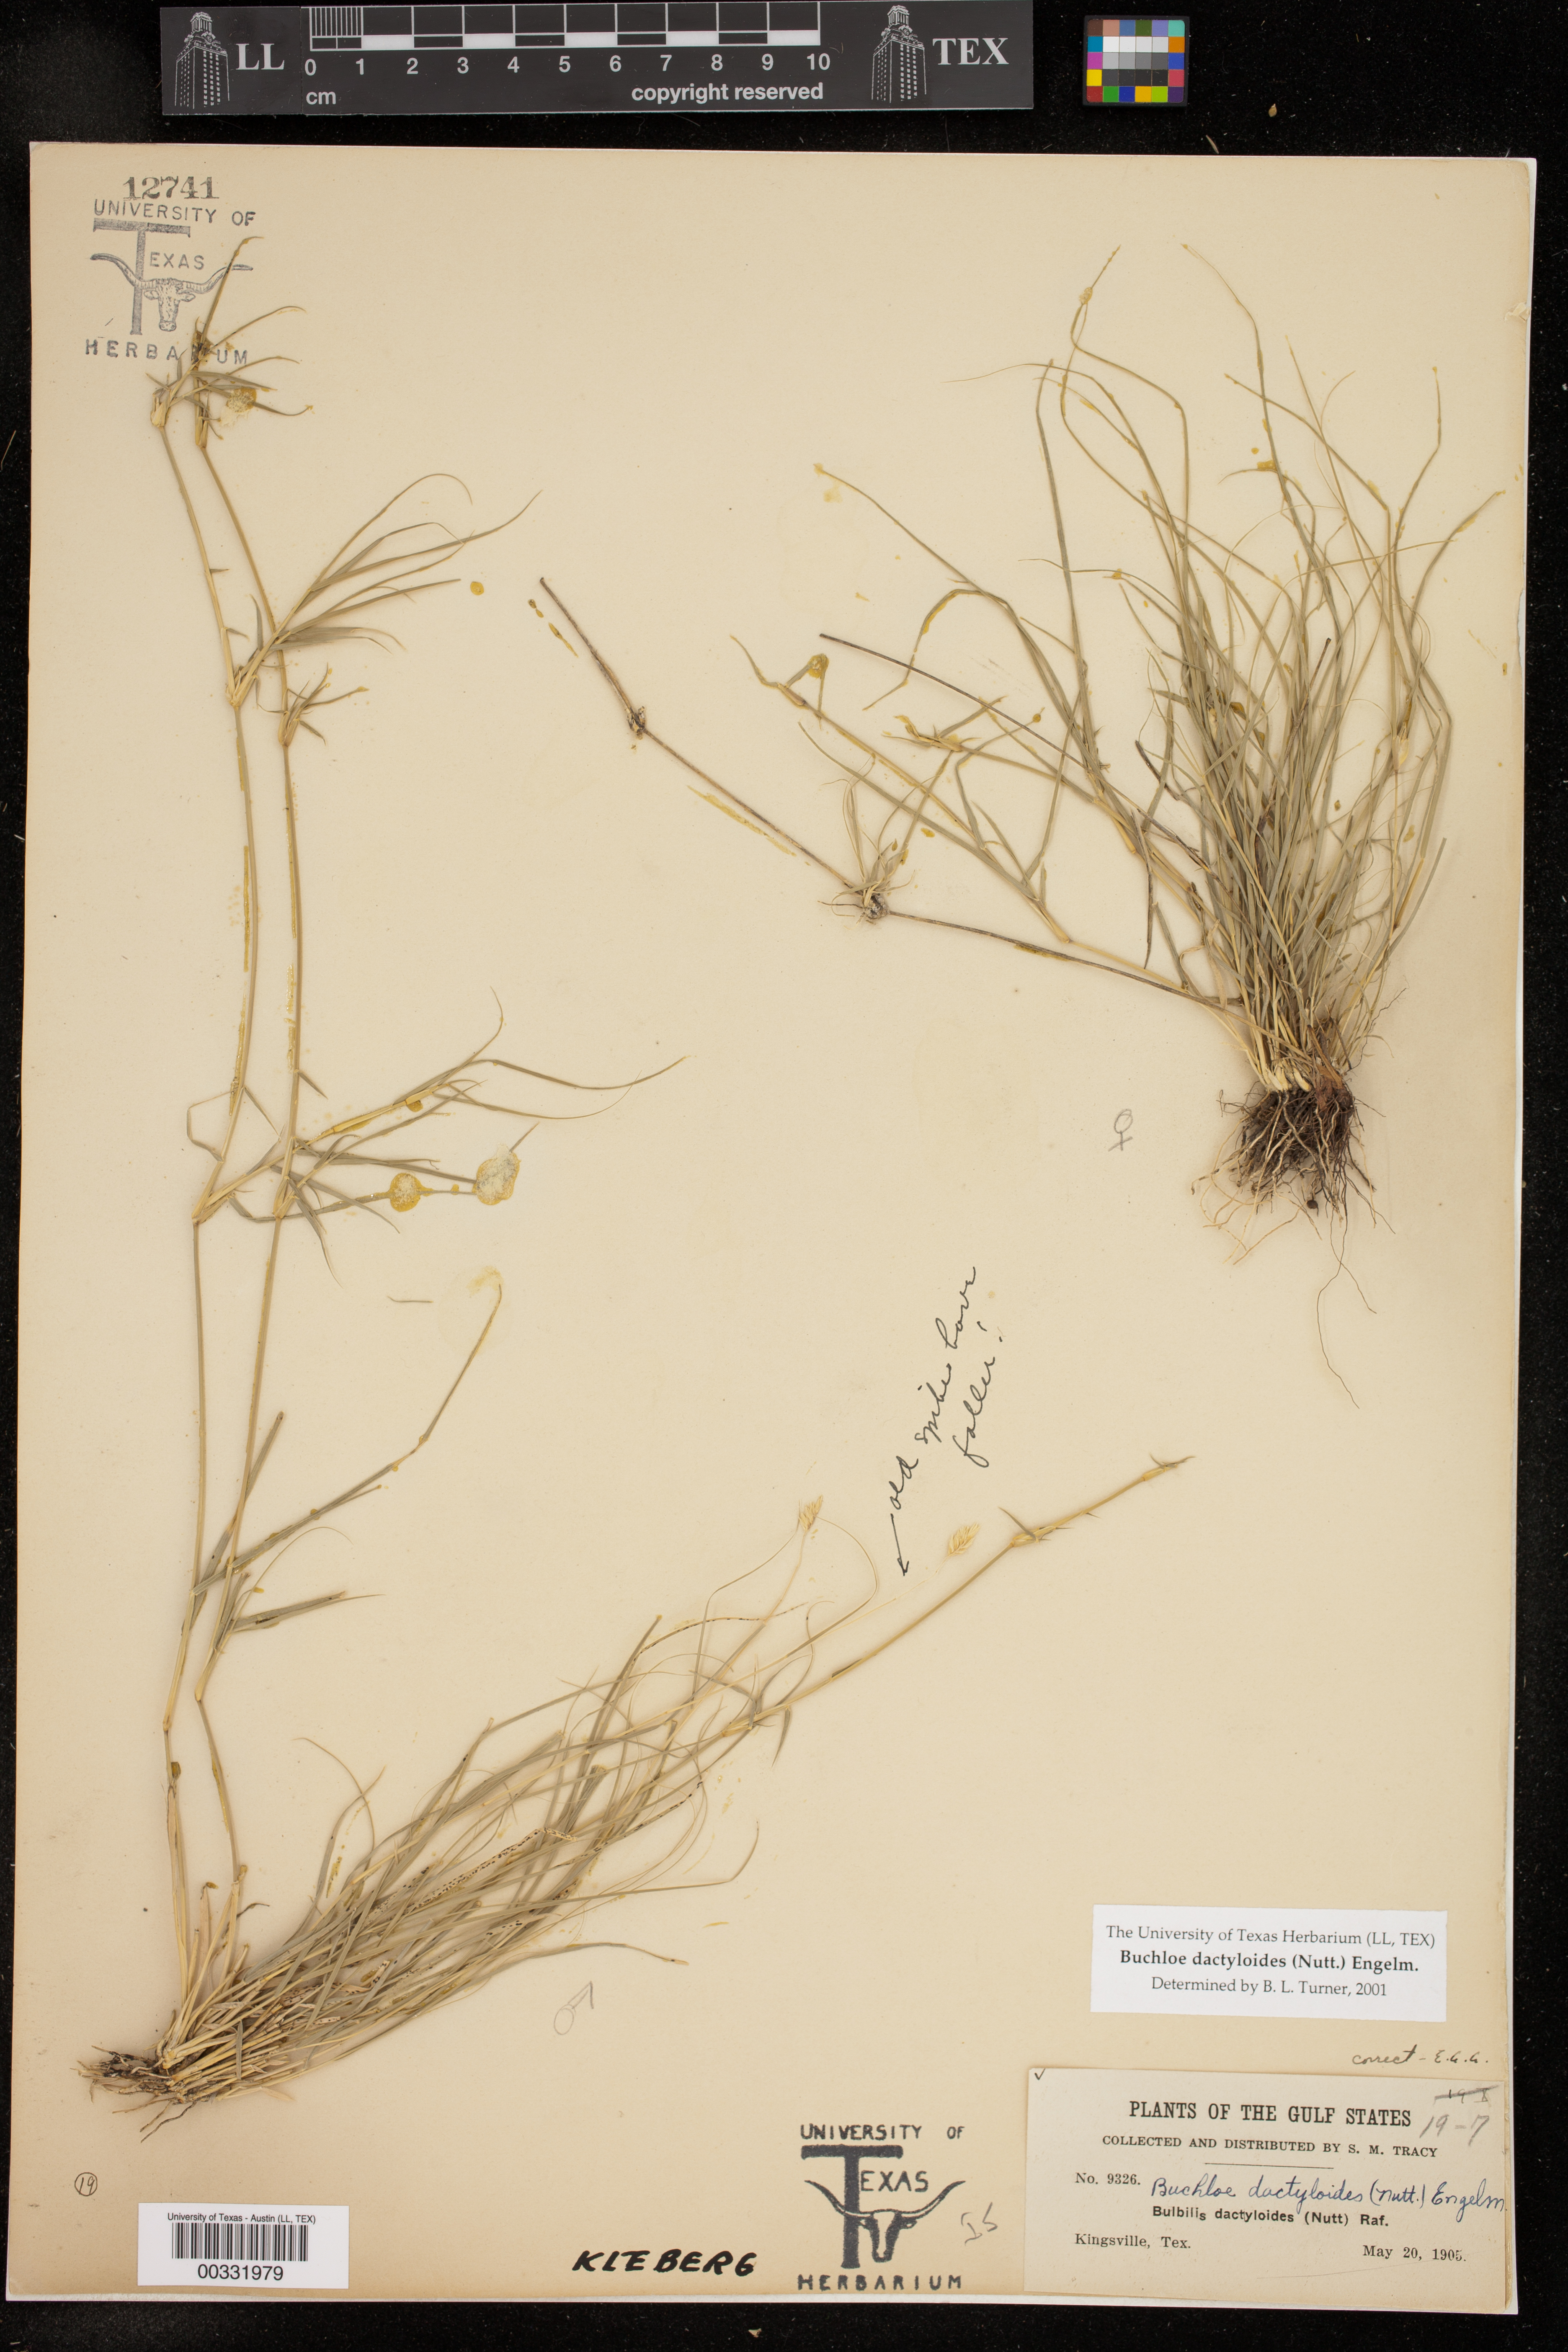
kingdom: Plantae
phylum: Tracheophyta
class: Liliopsida
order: Poales
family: Poaceae
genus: Bouteloua
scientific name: Bouteloua dactyloides
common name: Buffalo grass
